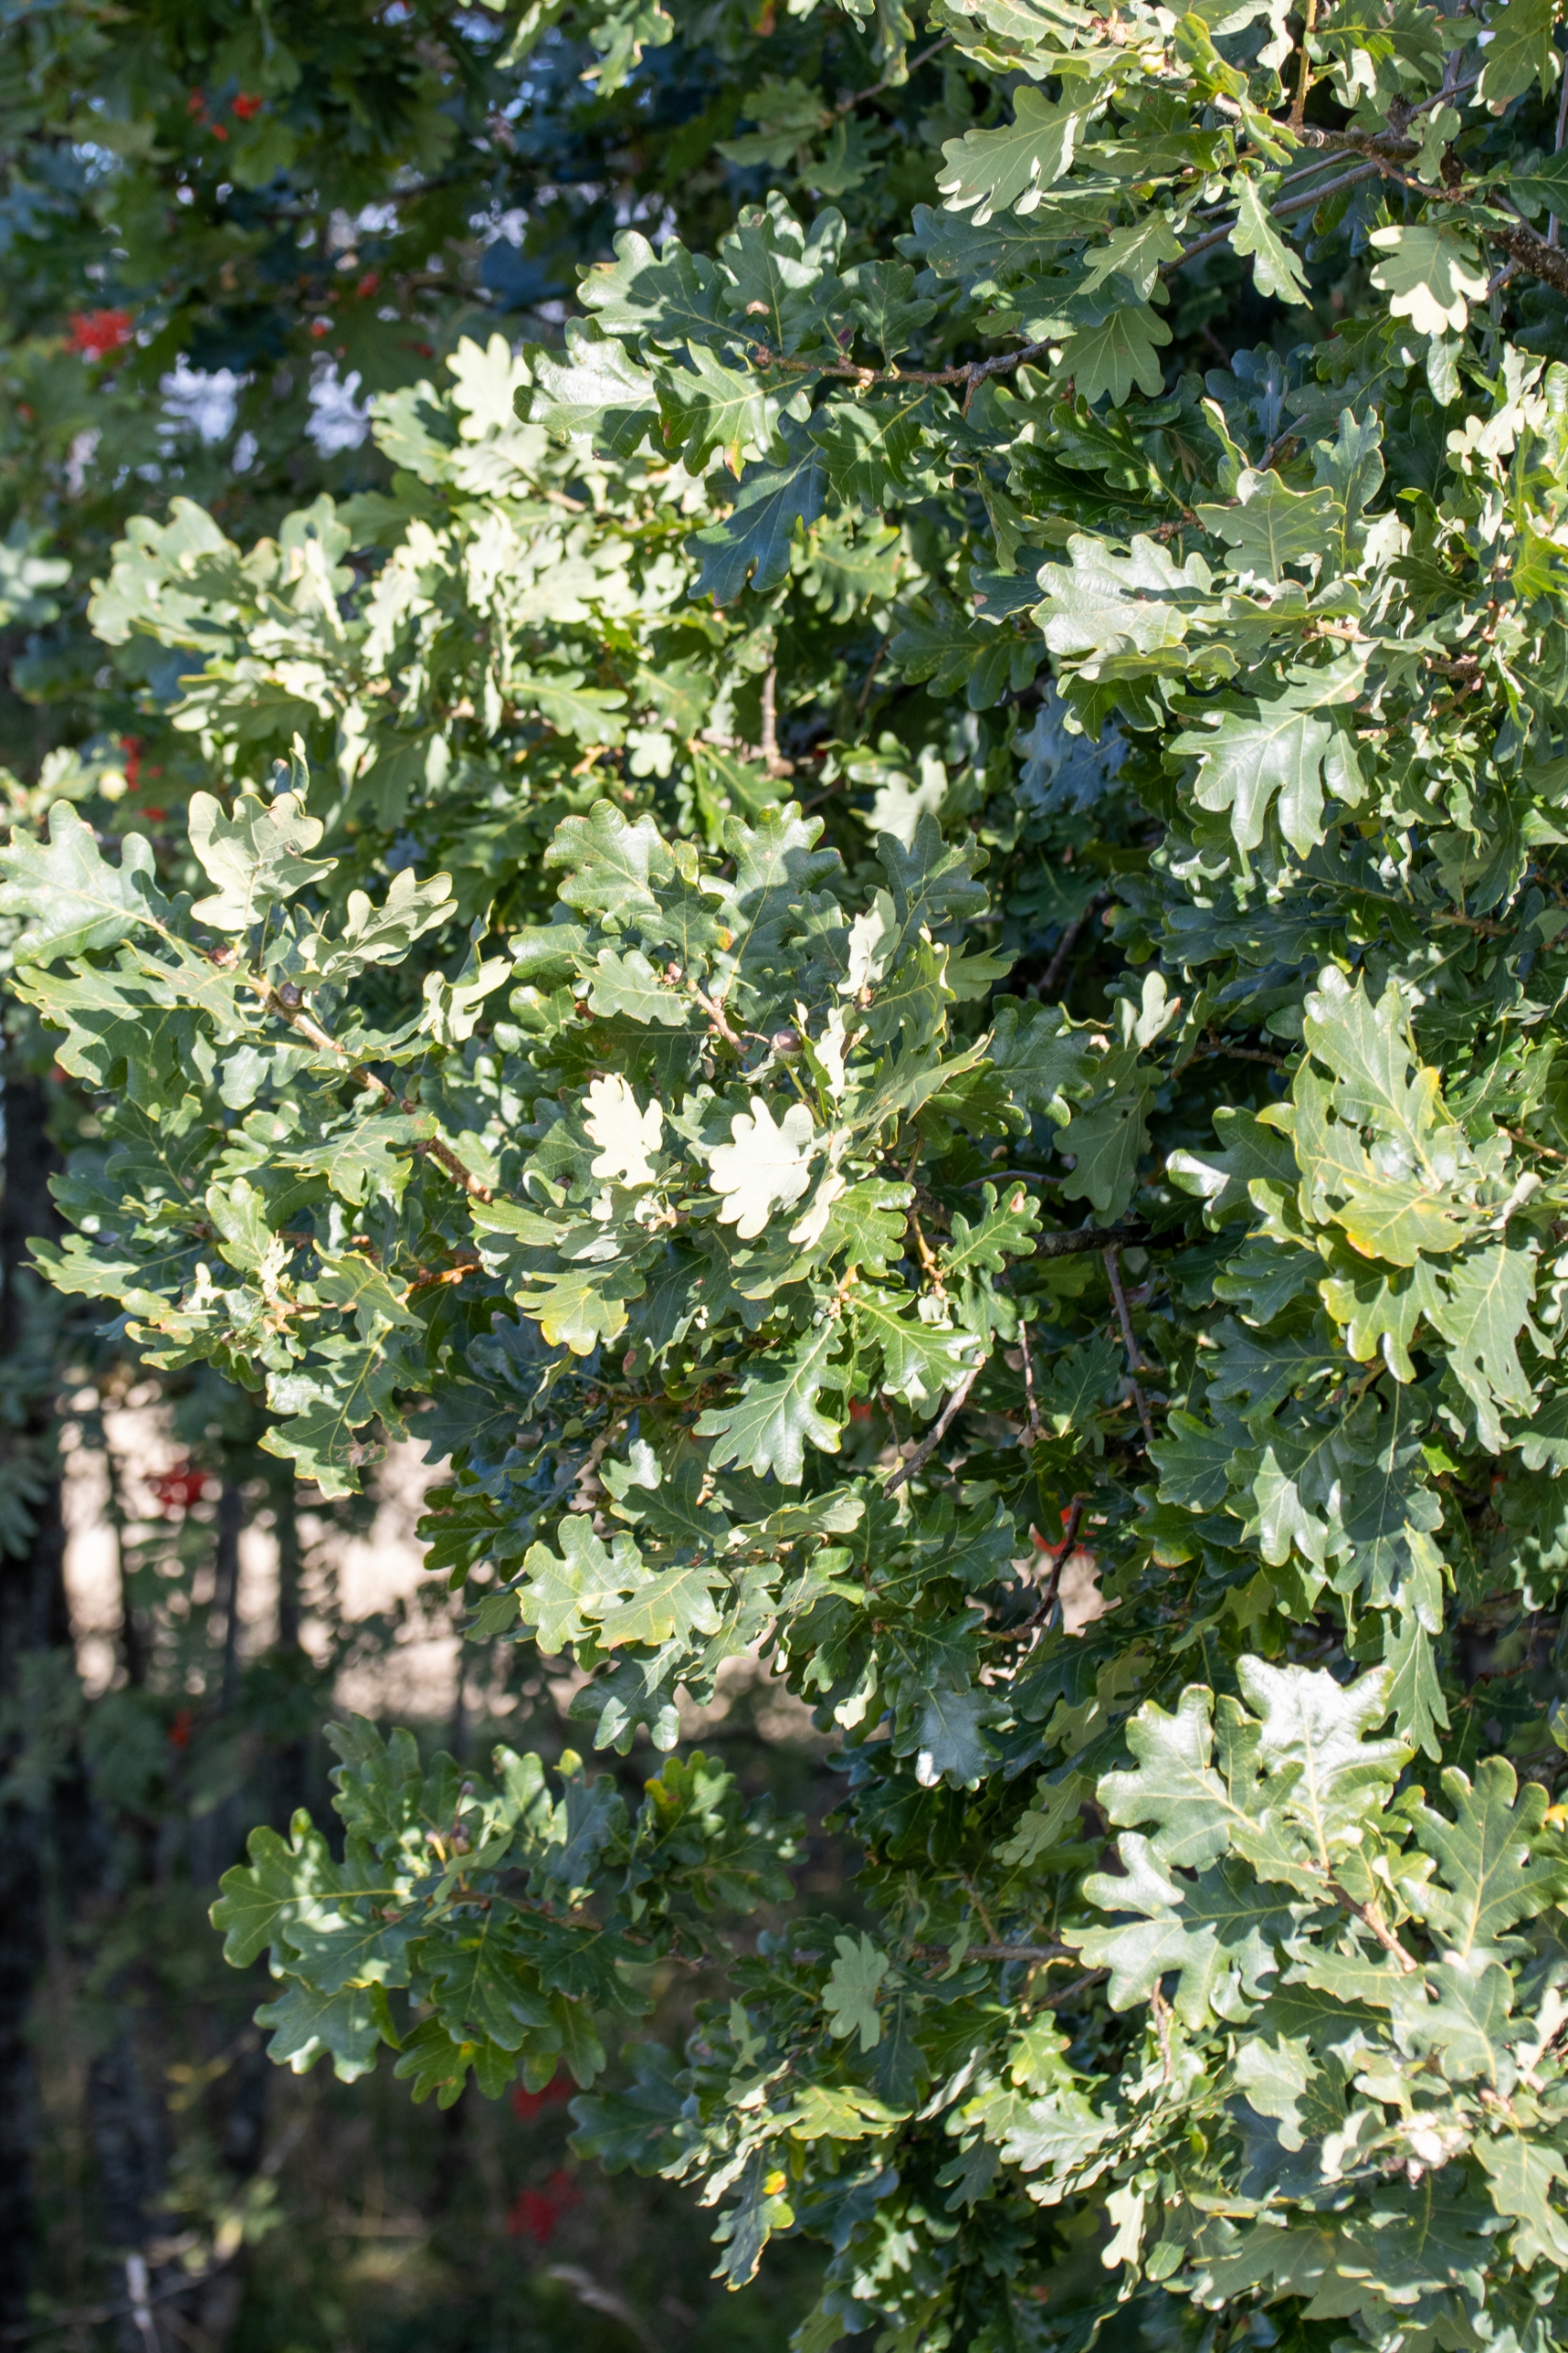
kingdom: Plantae
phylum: Tracheophyta
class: Magnoliopsida
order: Fagales
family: Fagaceae
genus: Quercus
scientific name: Quercus robur
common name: Stilk-eg/almindelig eg
